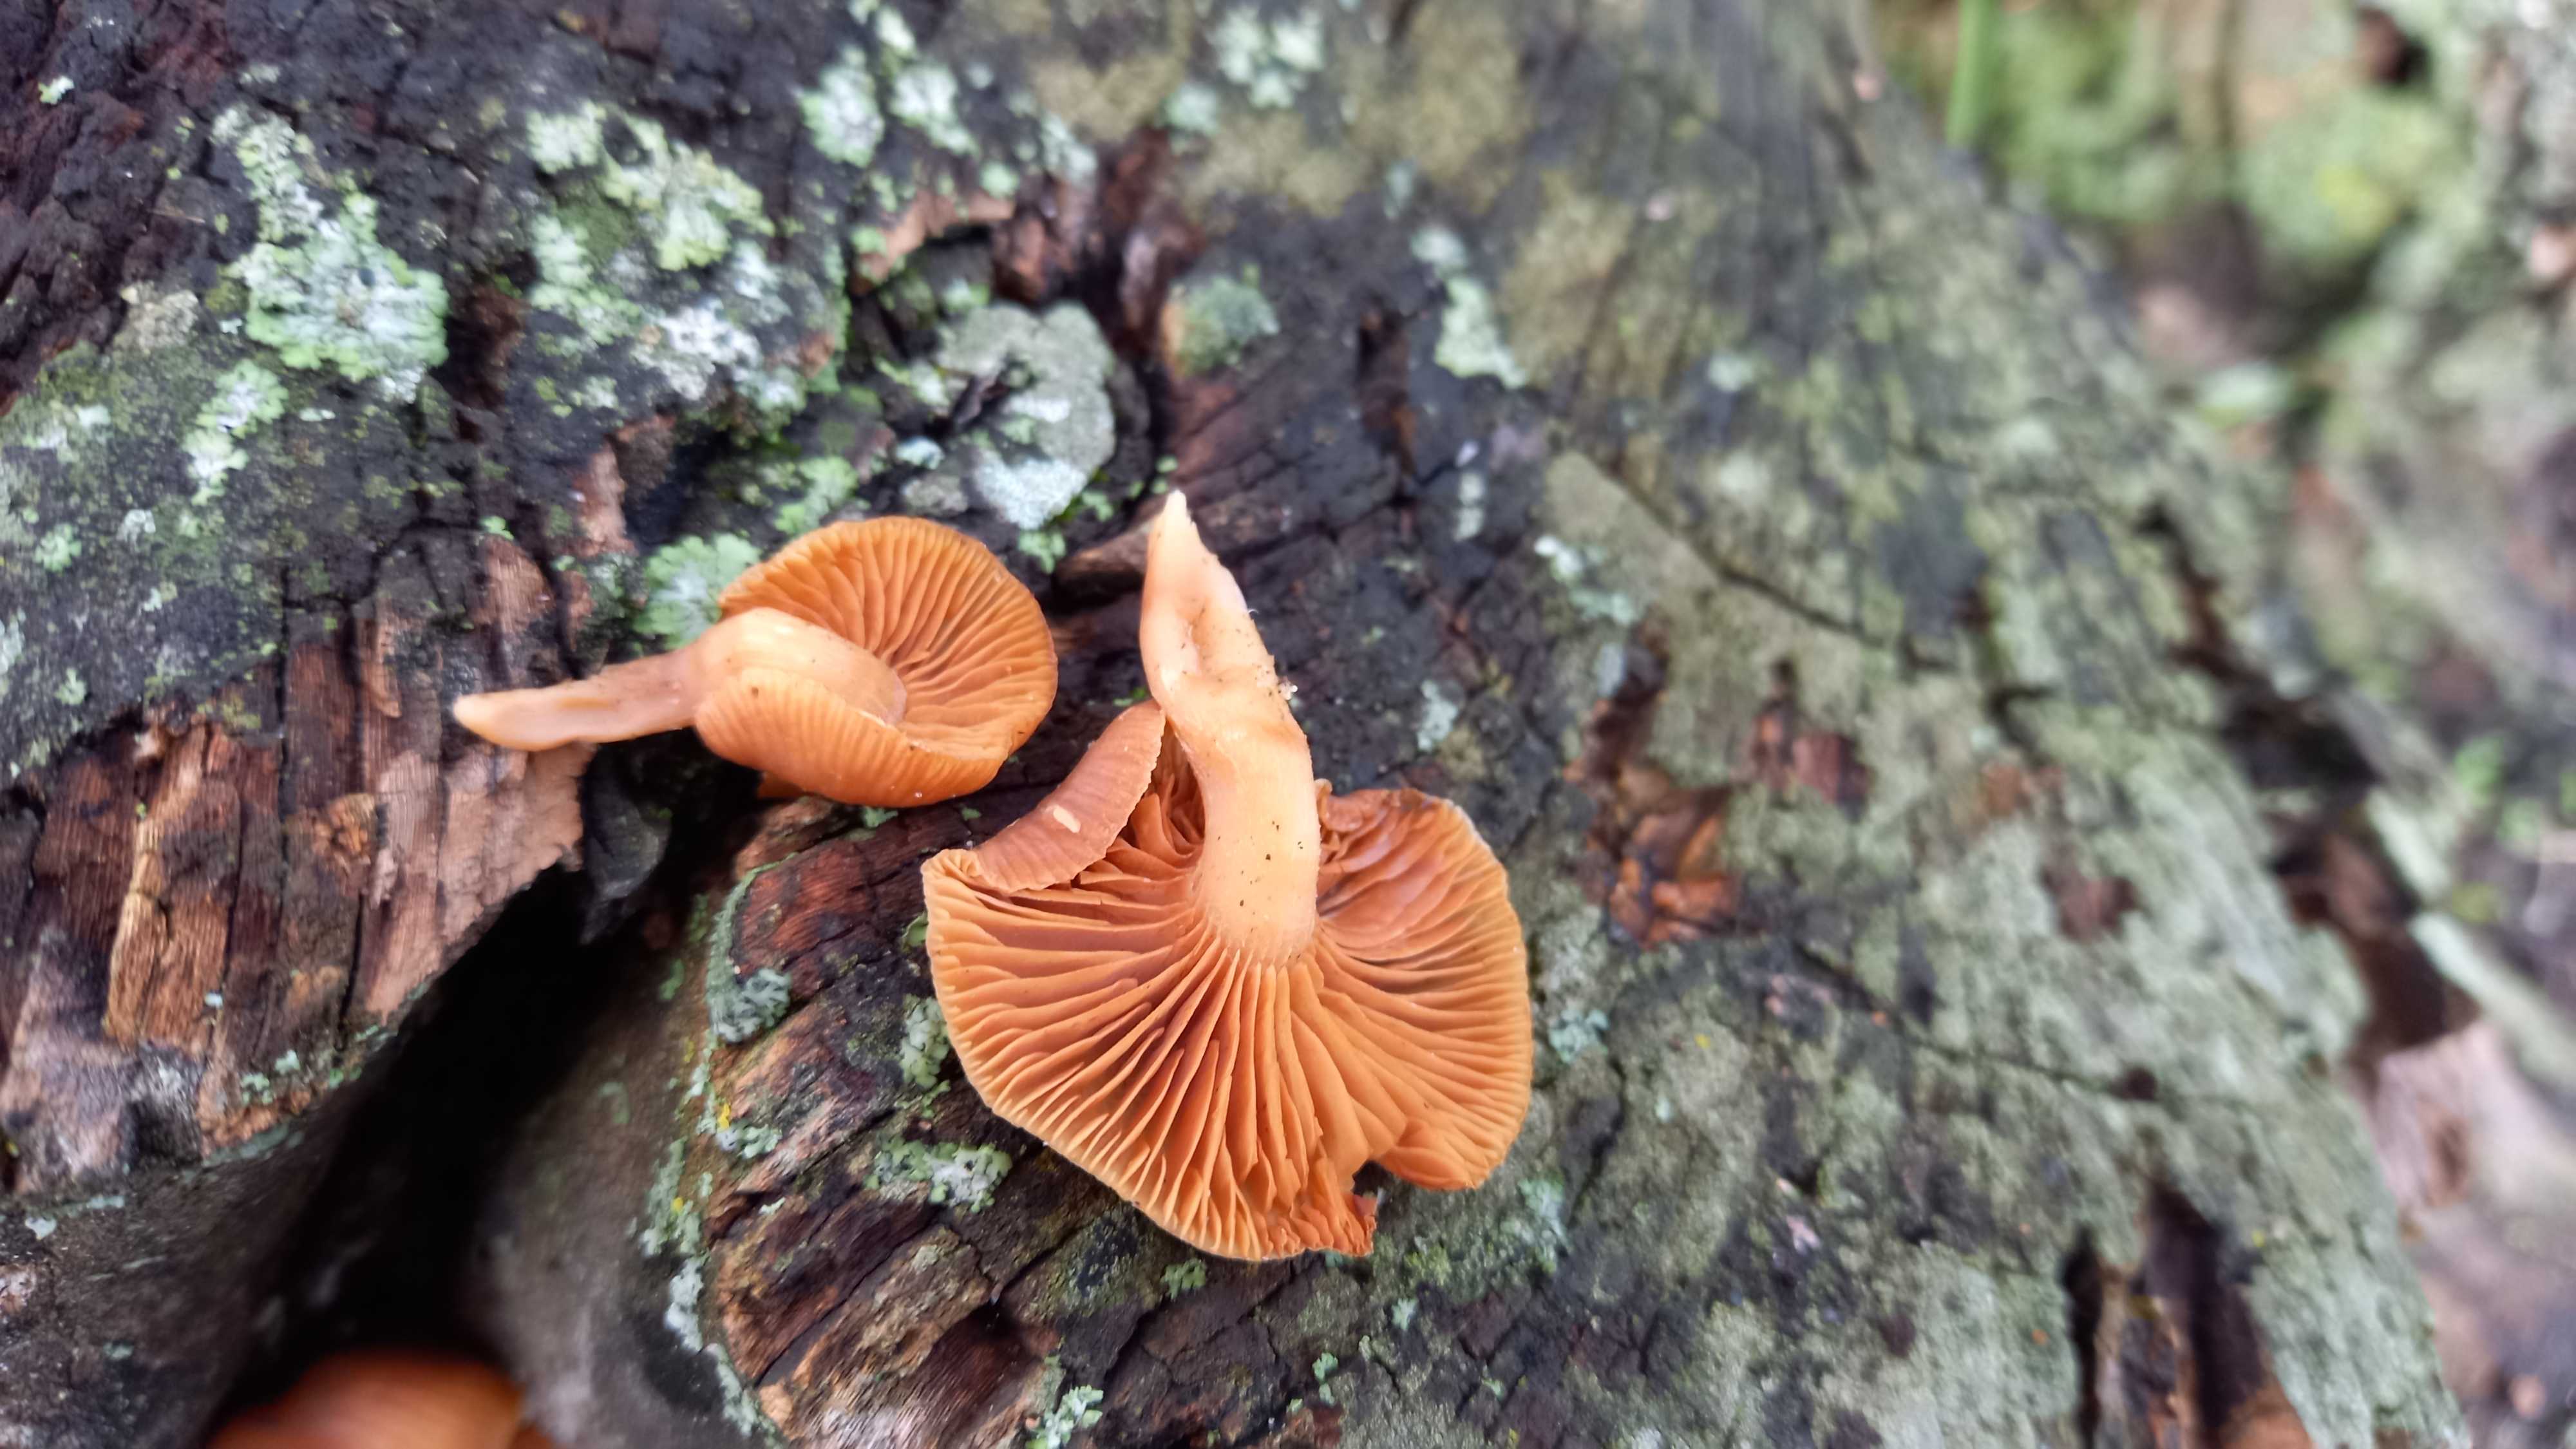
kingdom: Fungi
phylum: Basidiomycota
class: Agaricomycetes
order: Agaricales
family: Tubariaceae
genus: Tubaria
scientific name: Tubaria furfuracea
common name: kliddet fnughat
